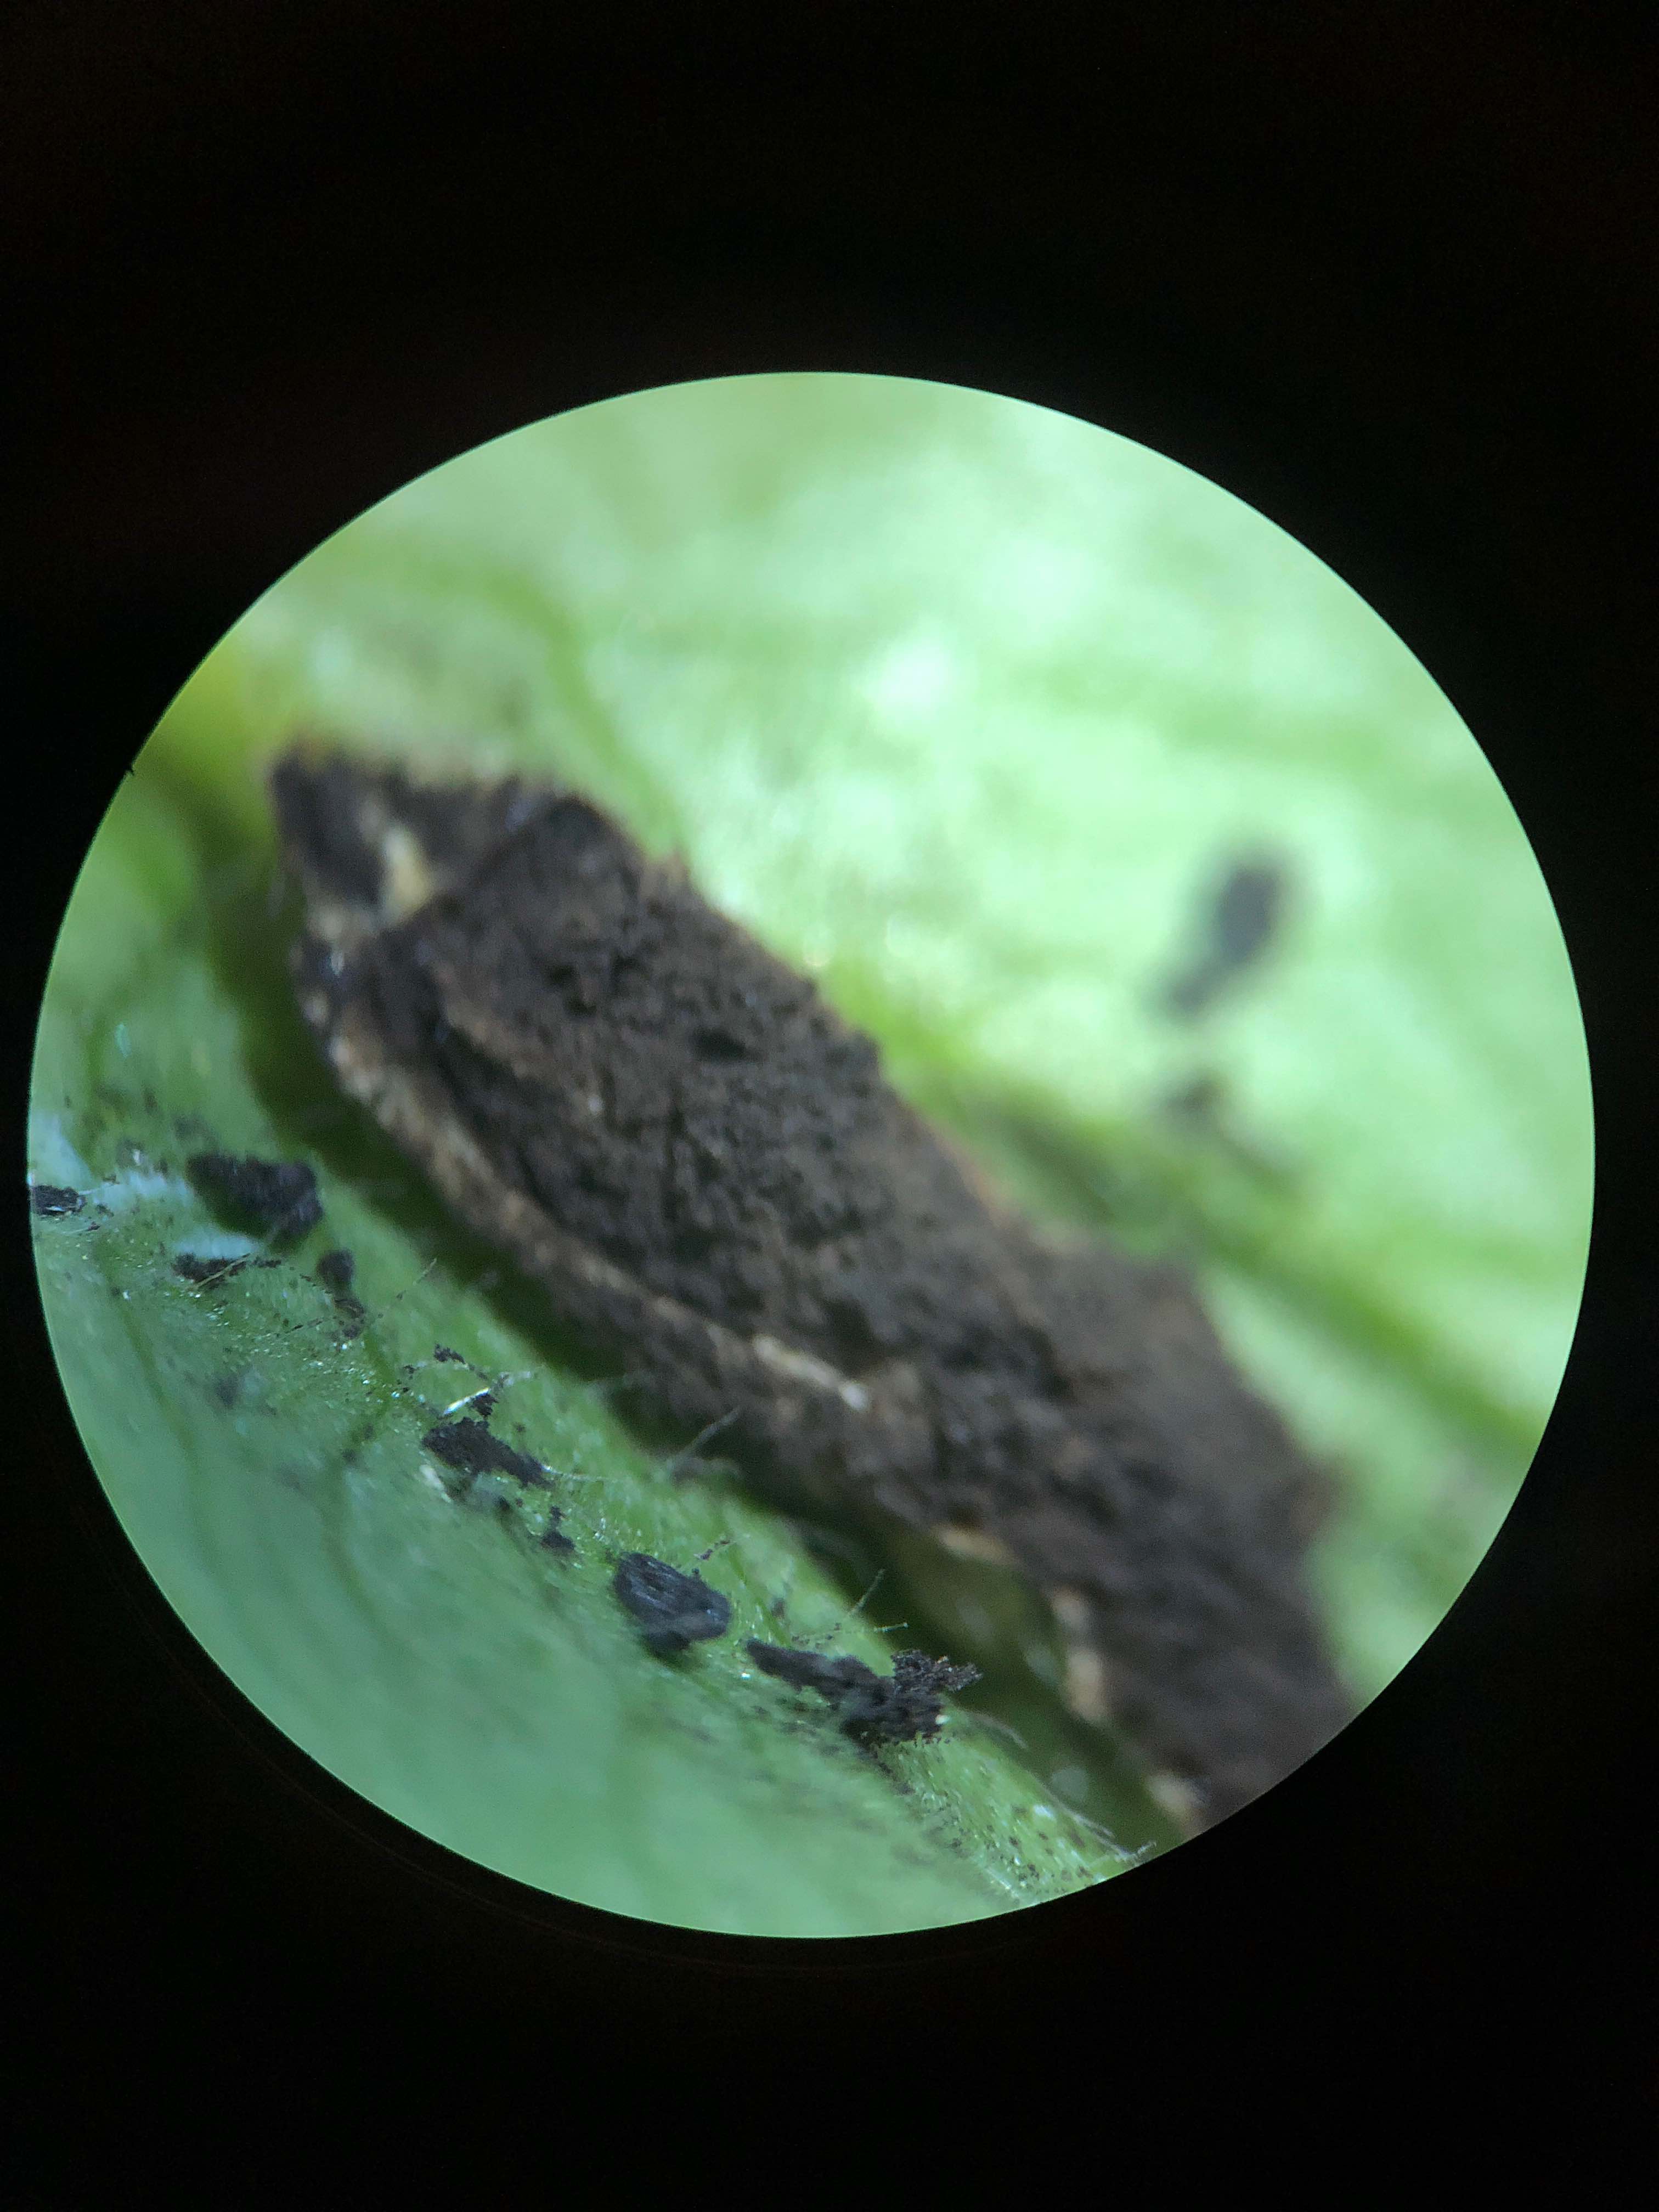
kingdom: Fungi
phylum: Basidiomycota
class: Ustilaginomycetes
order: Urocystidales
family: Urocystidaceae
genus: Urocystis
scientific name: Urocystis anemones
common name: anemone-brand
